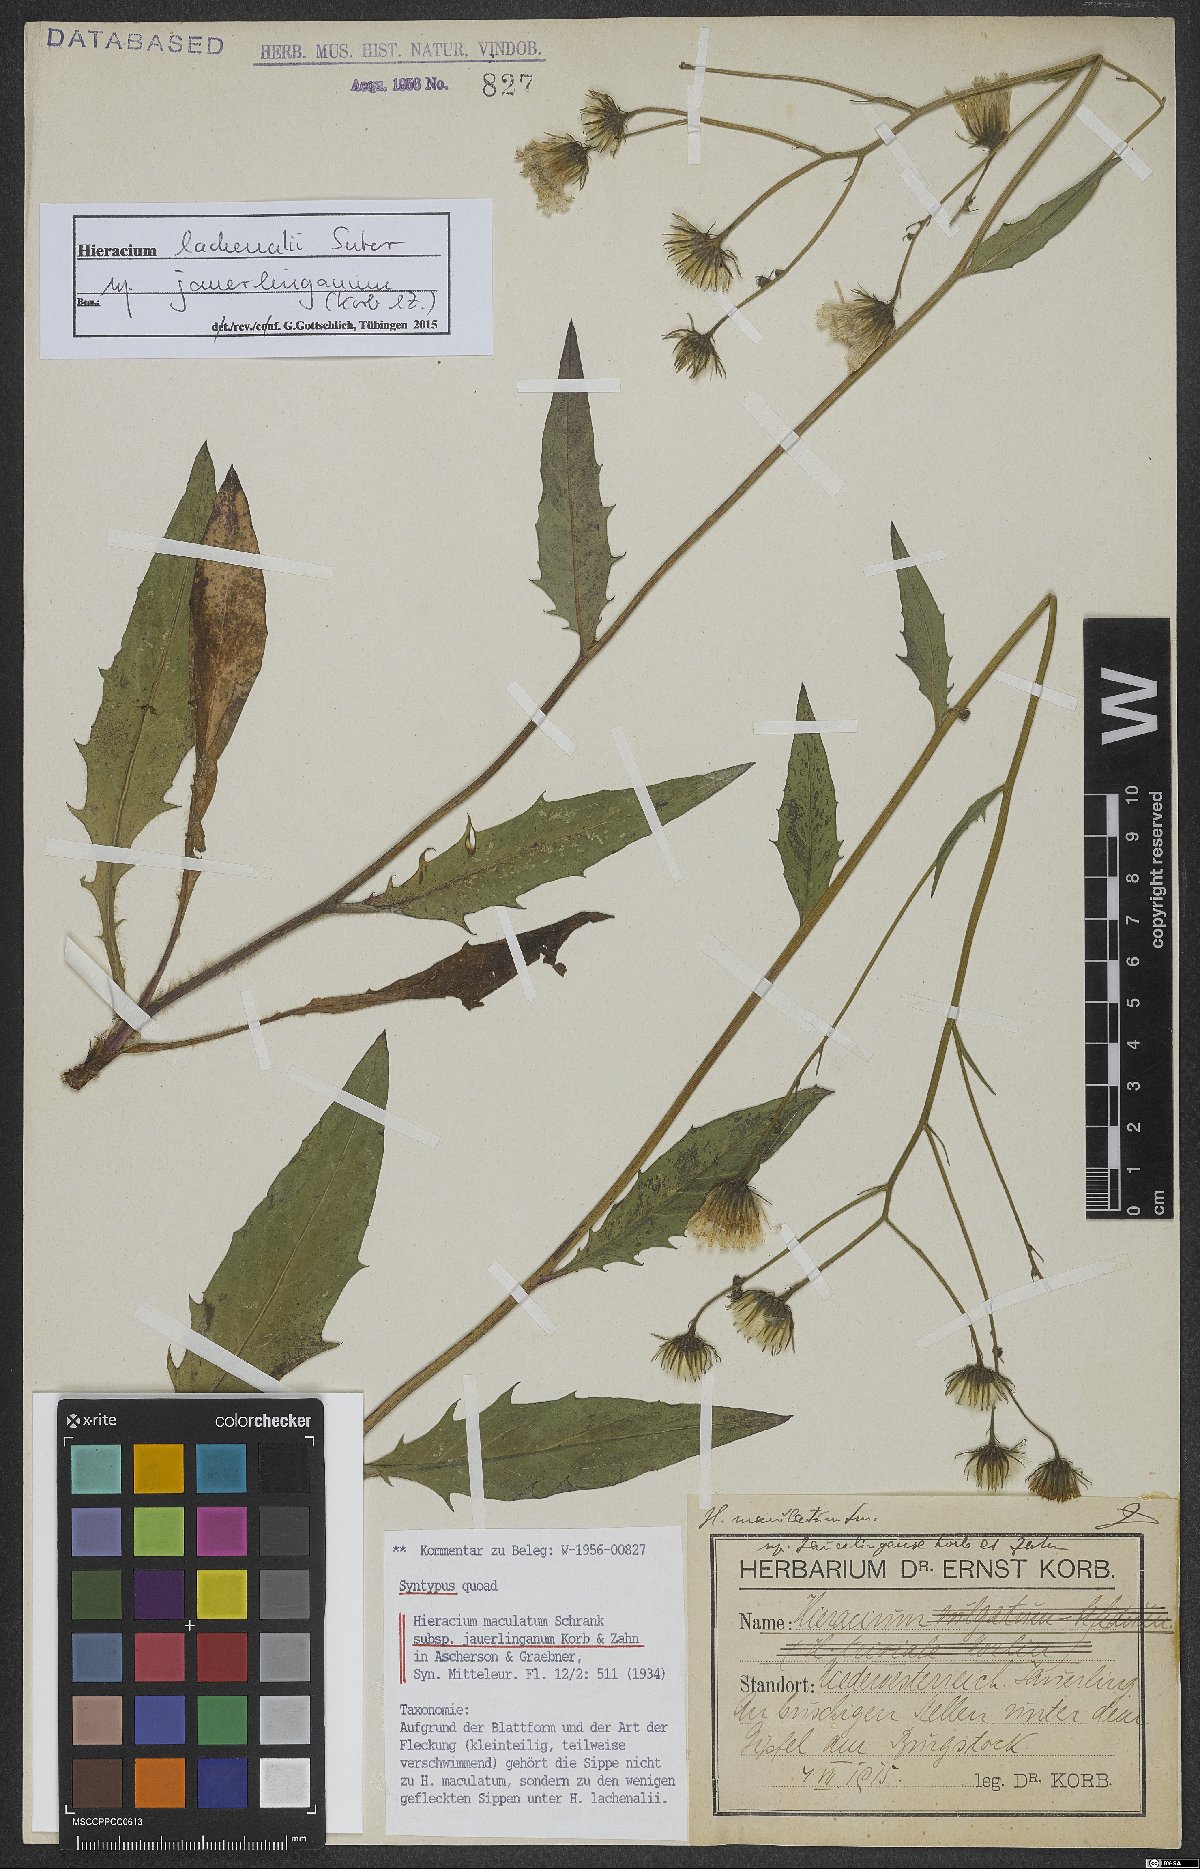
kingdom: Plantae
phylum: Tracheophyta
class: Magnoliopsida
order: Asterales
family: Asteraceae
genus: Hieracium
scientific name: Hieracium lachenalii
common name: Common hawkweed
